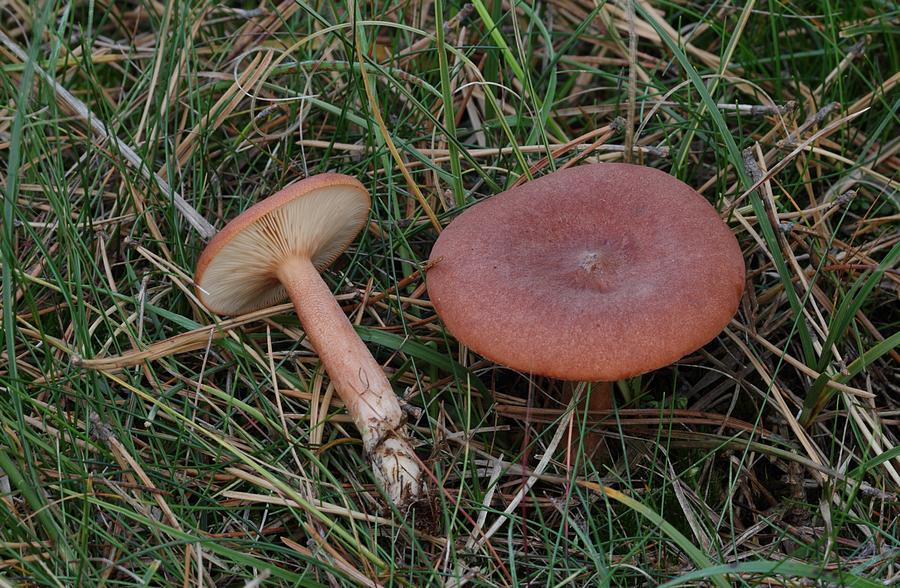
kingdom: Fungi
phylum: Basidiomycota
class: Agaricomycetes
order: Russulales
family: Russulaceae
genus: Lactarius
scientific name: Lactarius rufus
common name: rødbrun mælkehat
